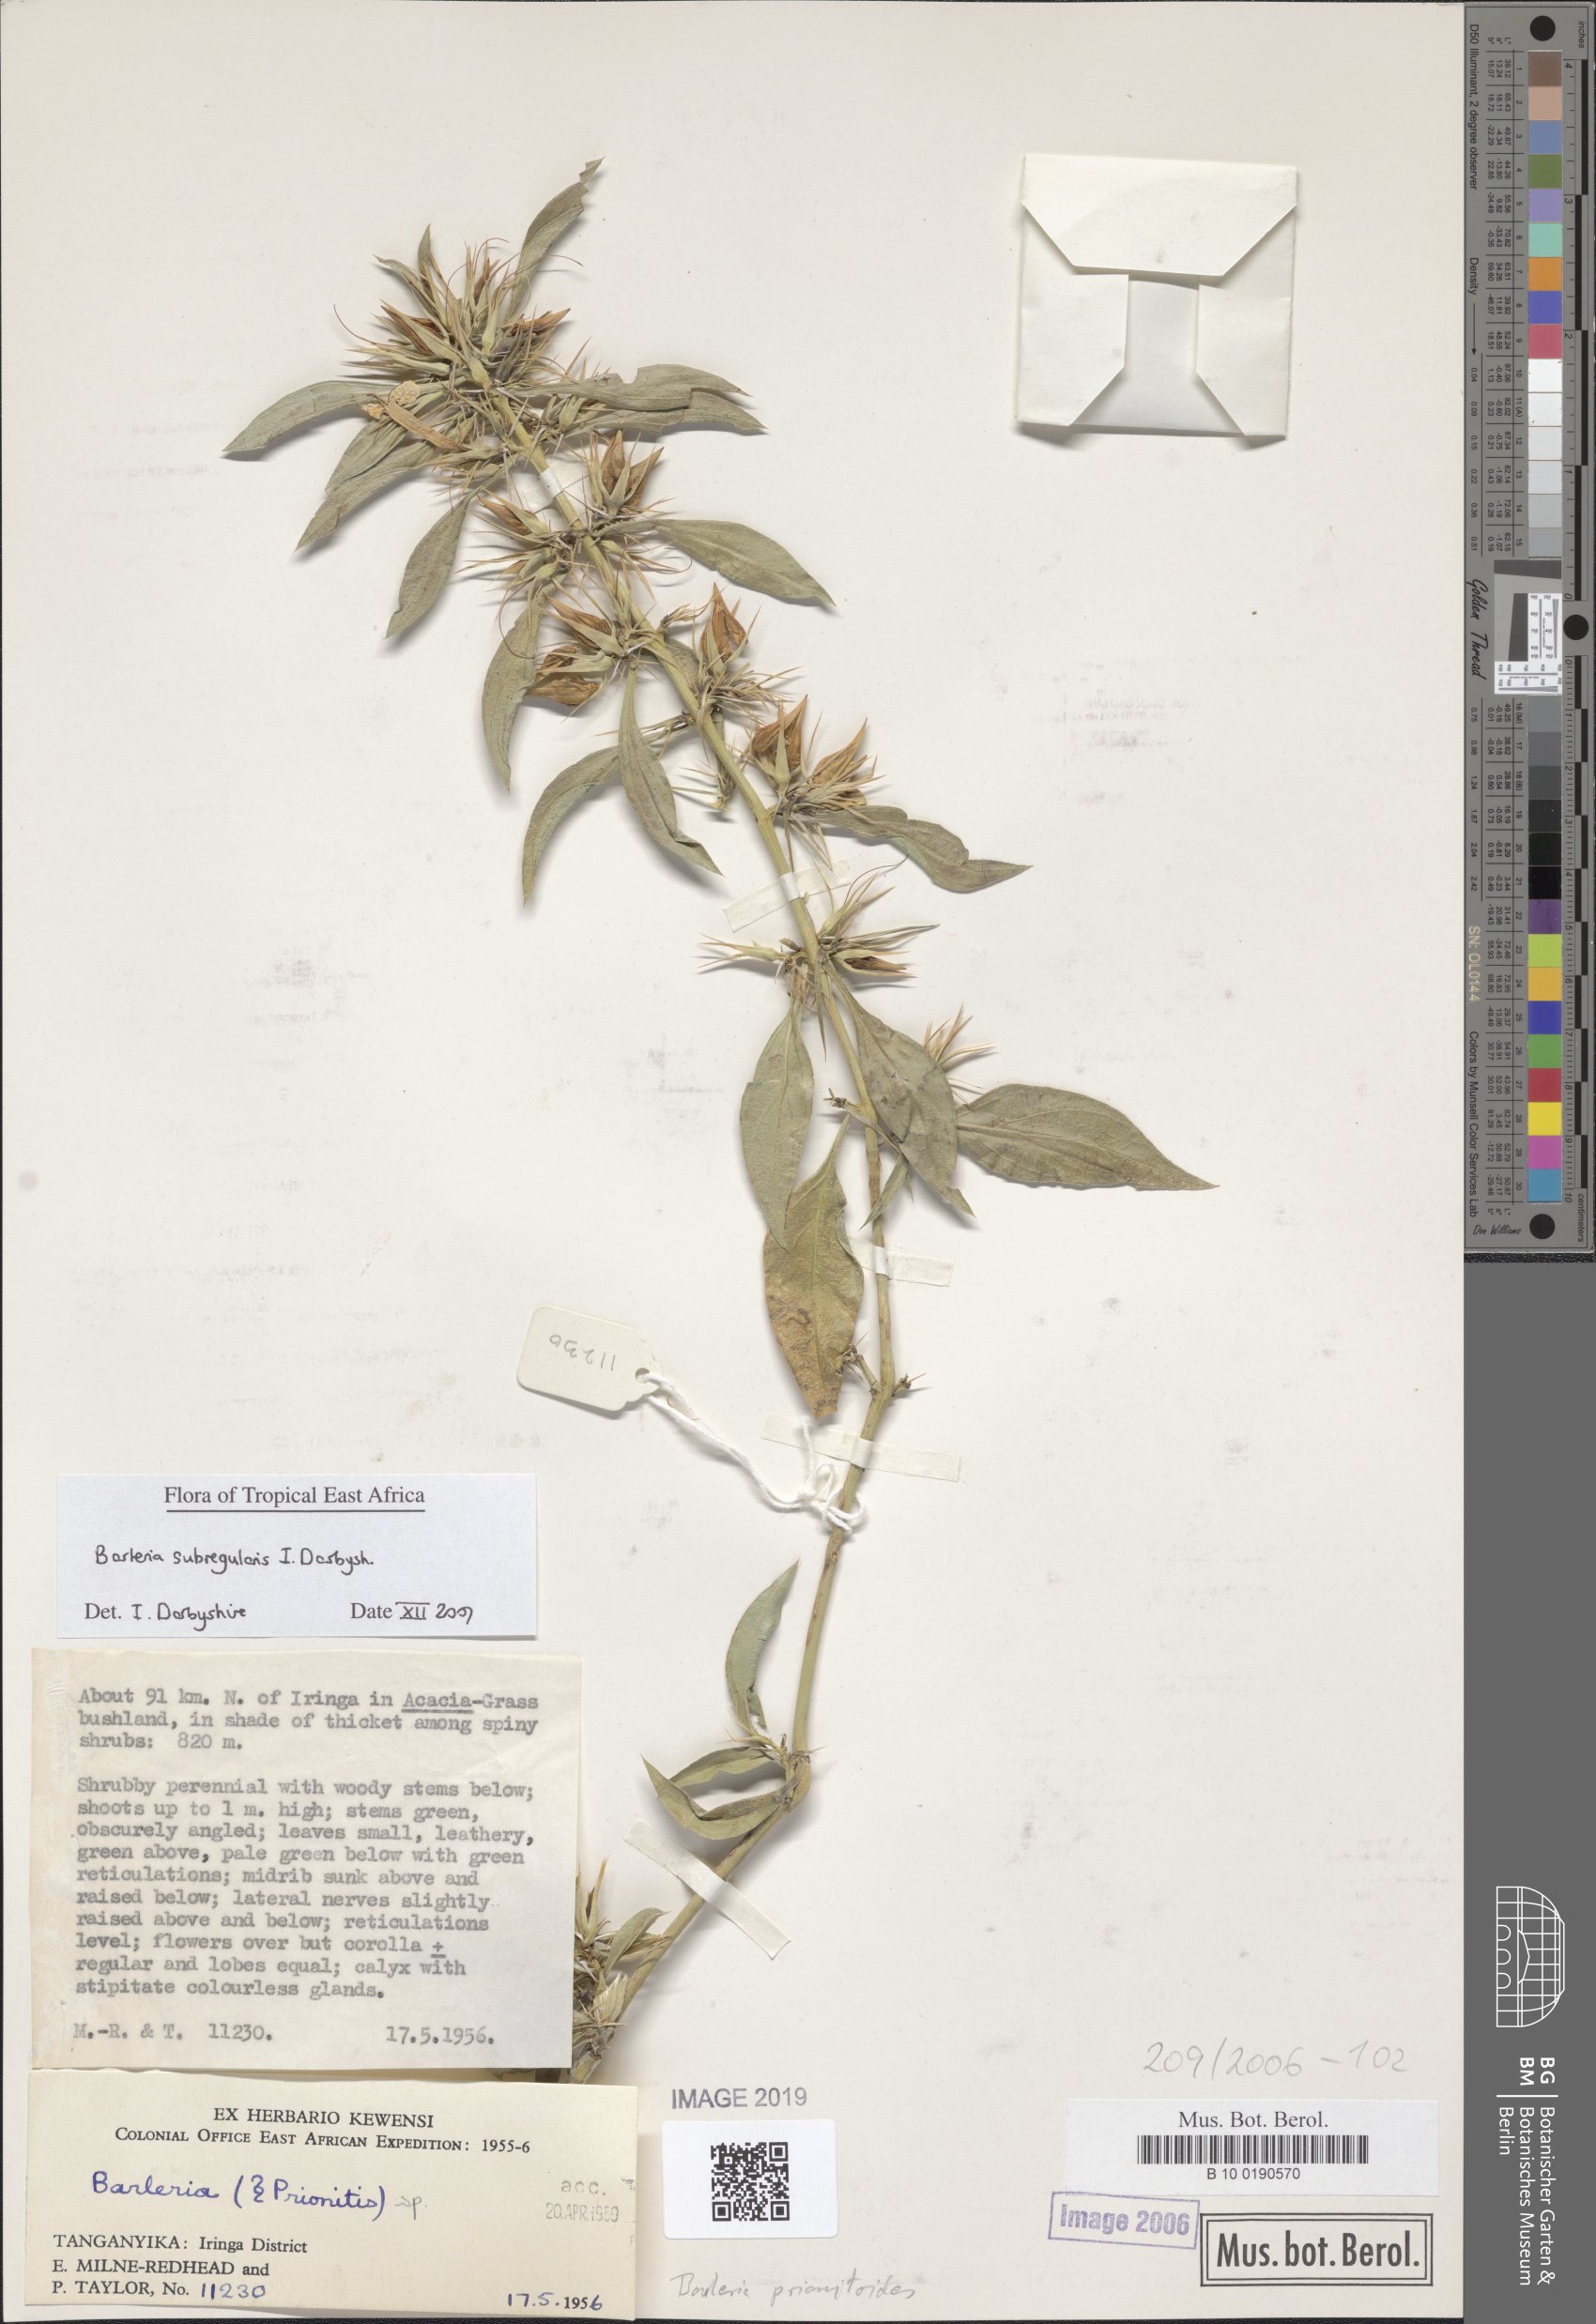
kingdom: Plantae
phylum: Tracheophyta
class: Magnoliopsida
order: Lamiales
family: Acanthaceae
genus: Barleria
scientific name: Barleria prionitis
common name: Barleria
